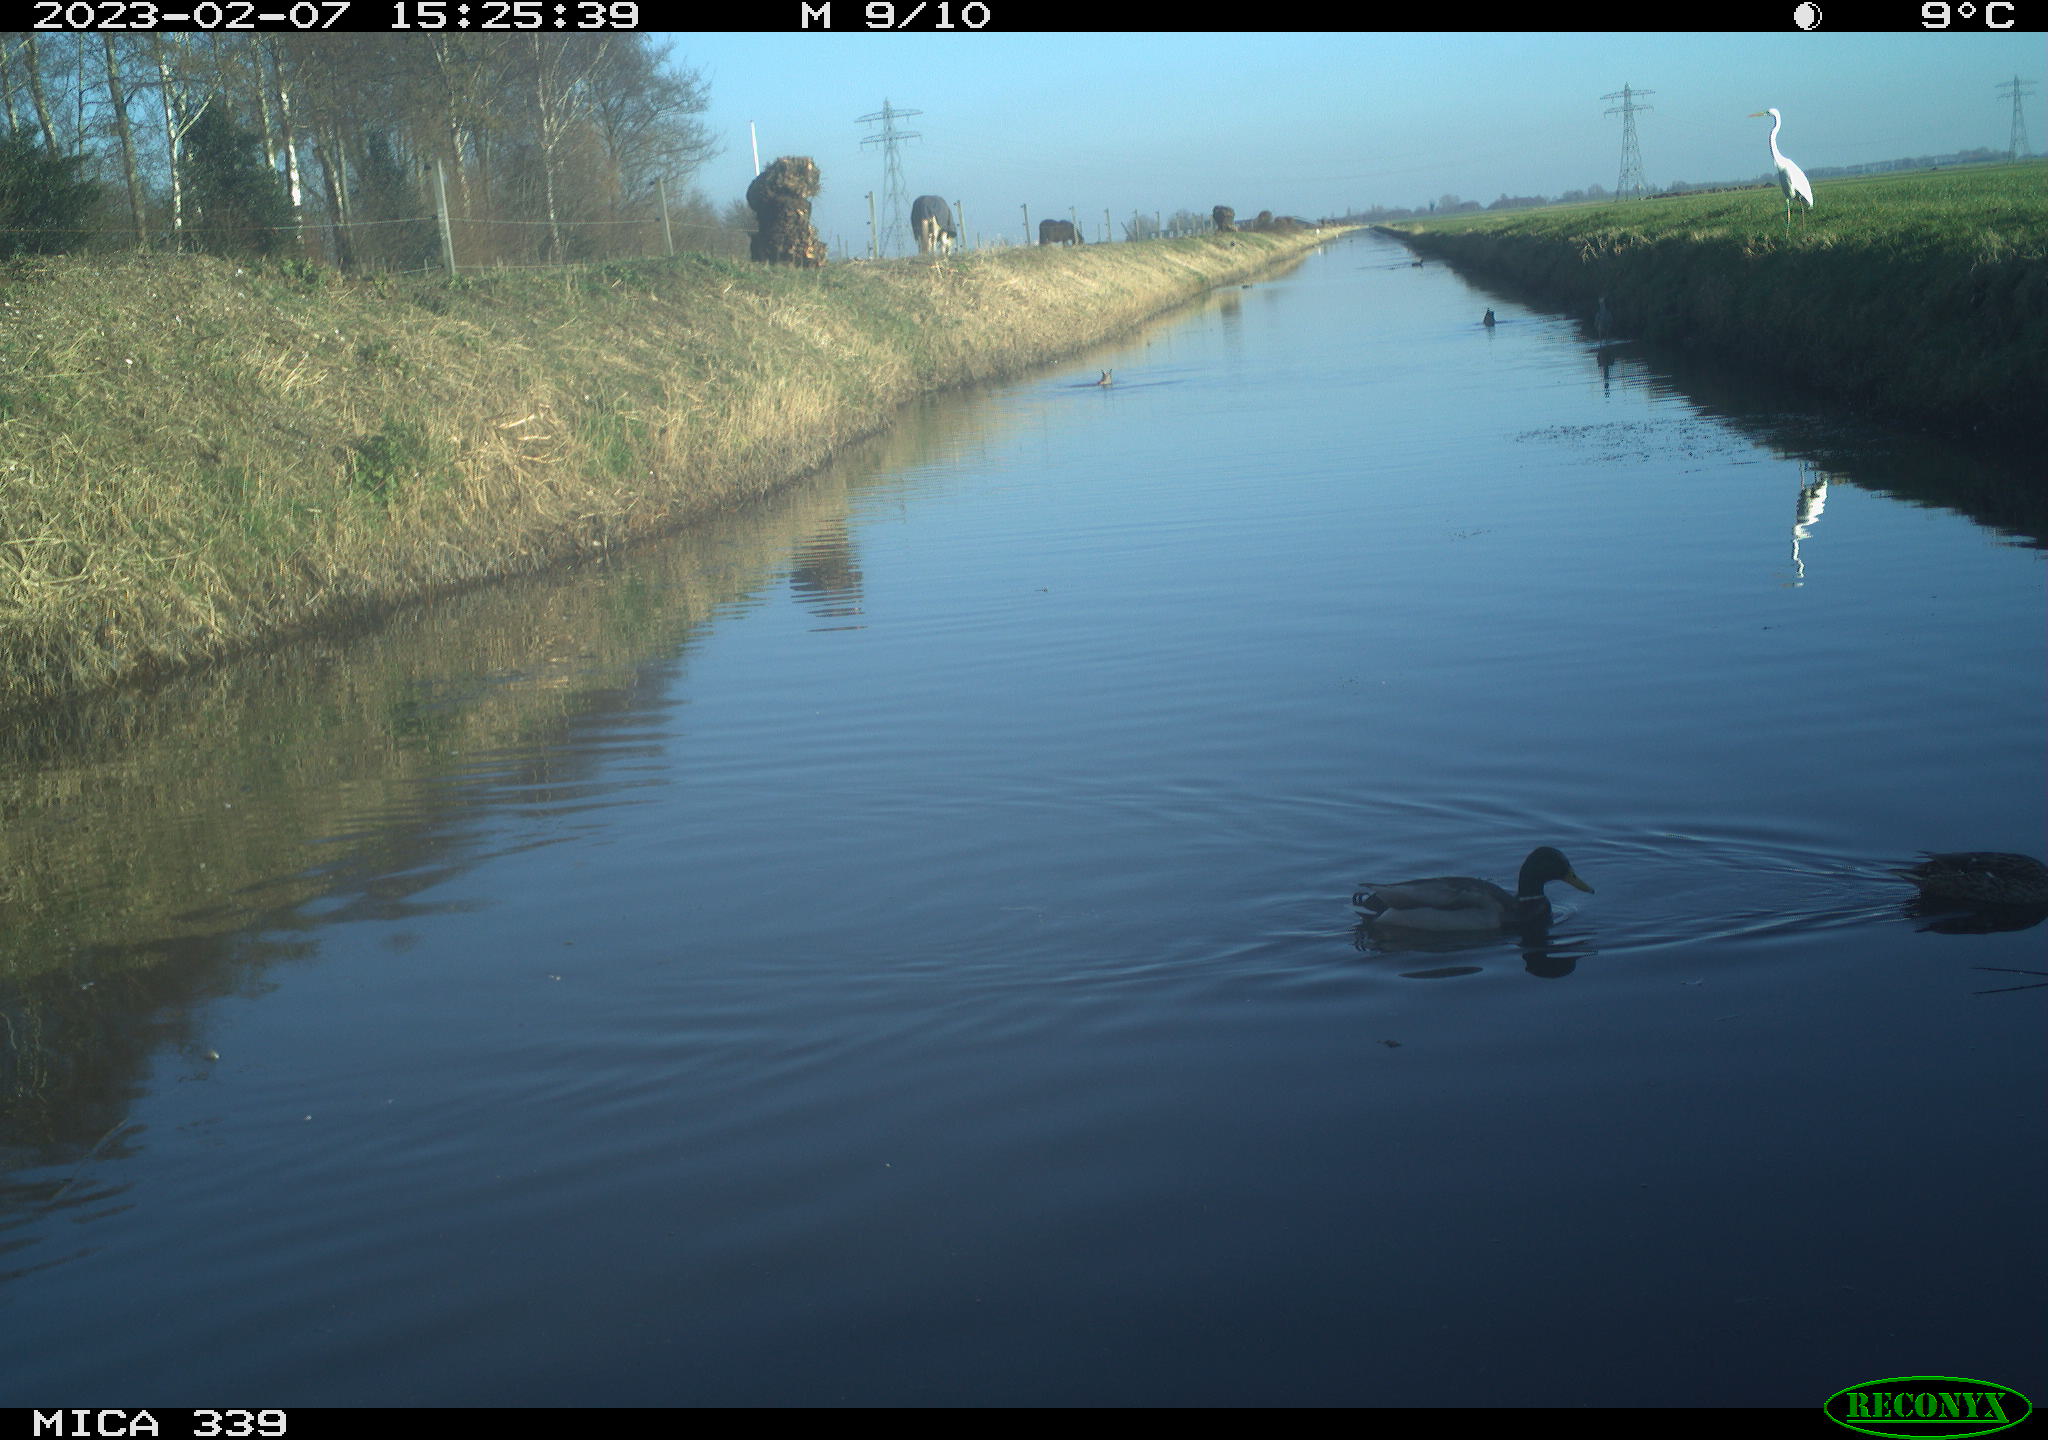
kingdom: Animalia
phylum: Chordata
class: Aves
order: Anseriformes
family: Anatidae
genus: Anas
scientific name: Anas
